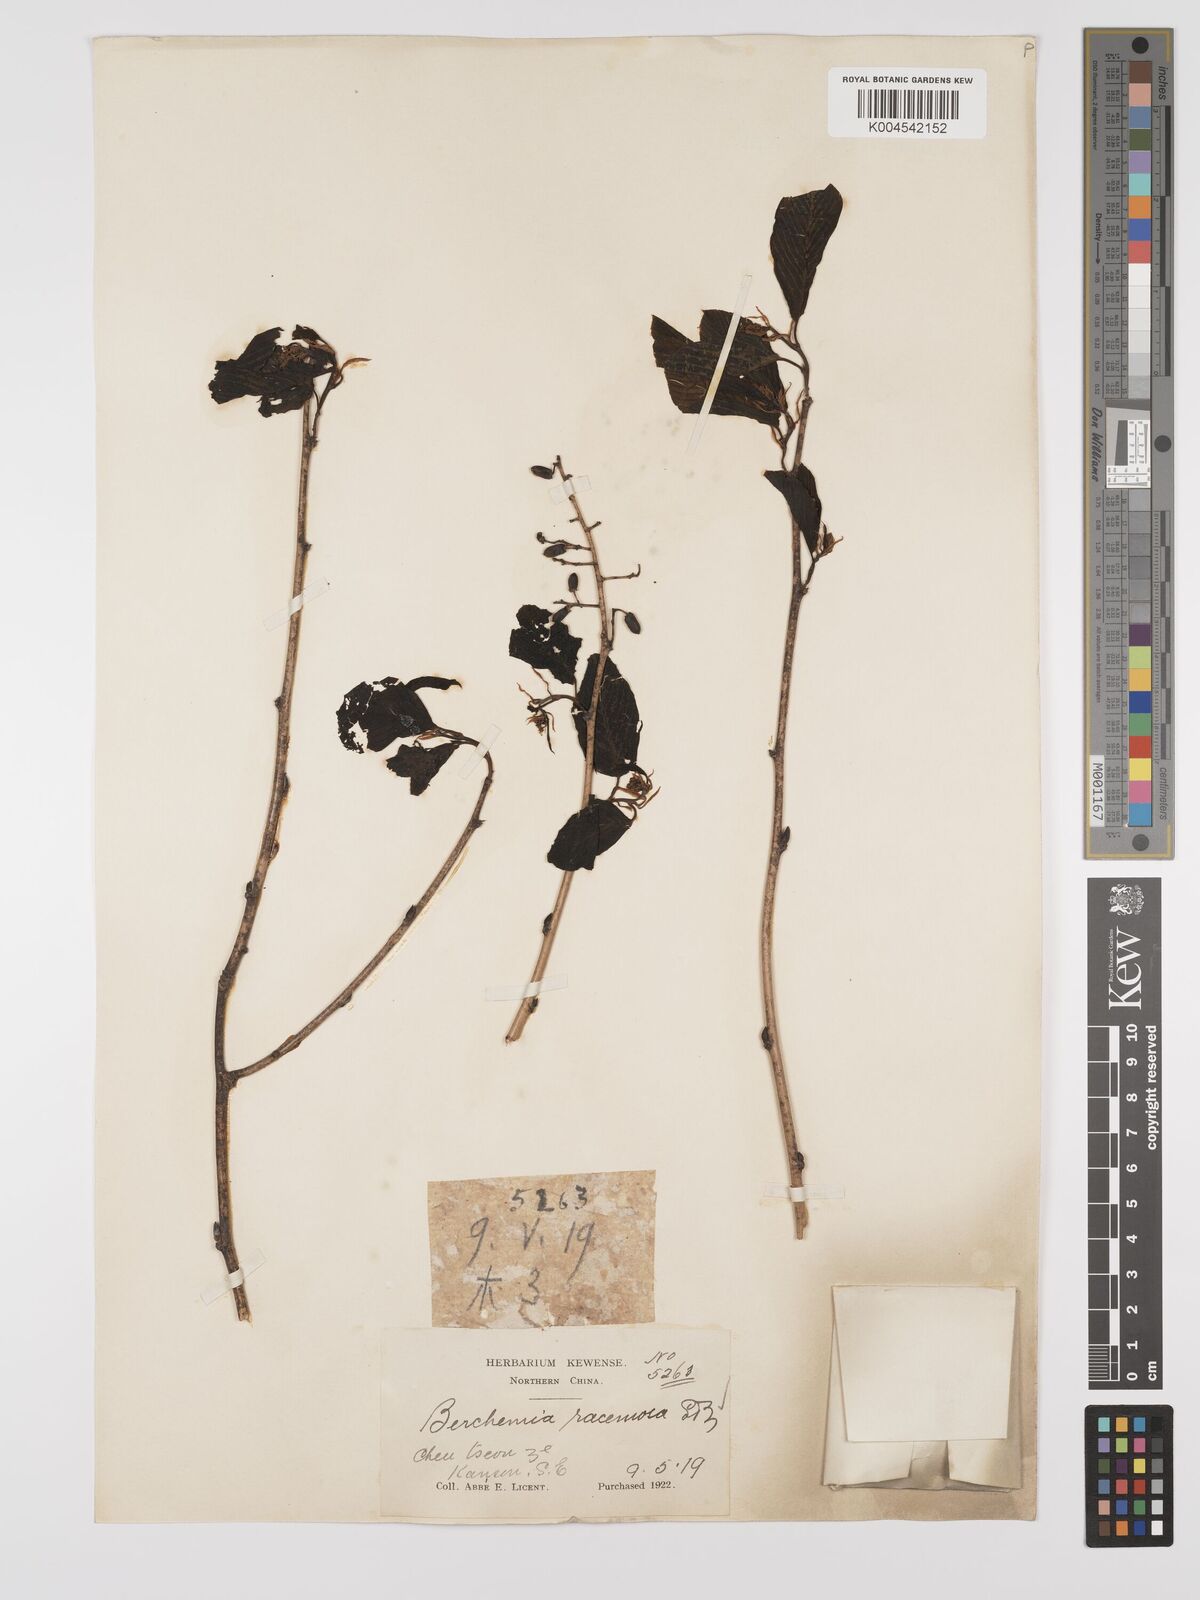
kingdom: Plantae
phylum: Tracheophyta
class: Magnoliopsida
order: Rosales
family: Rhamnaceae
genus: Berchemia
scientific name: Berchemia floribunda
